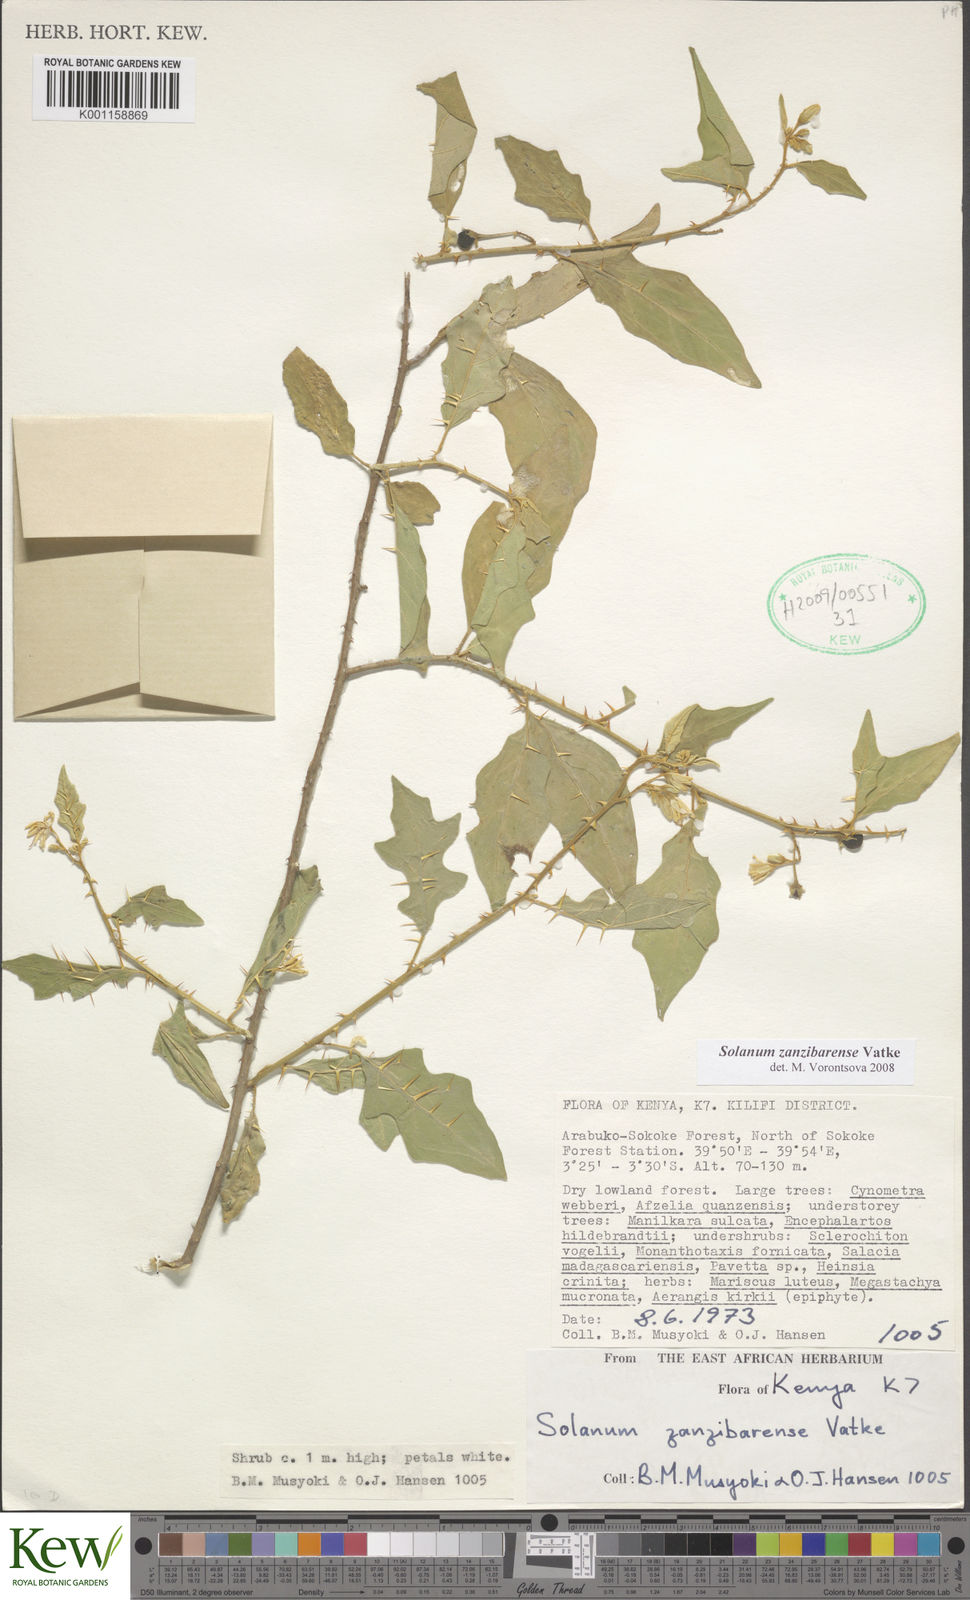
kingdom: Plantae
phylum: Tracheophyta
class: Magnoliopsida
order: Solanales
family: Solanaceae
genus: Solanum
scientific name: Solanum zanzibarense
